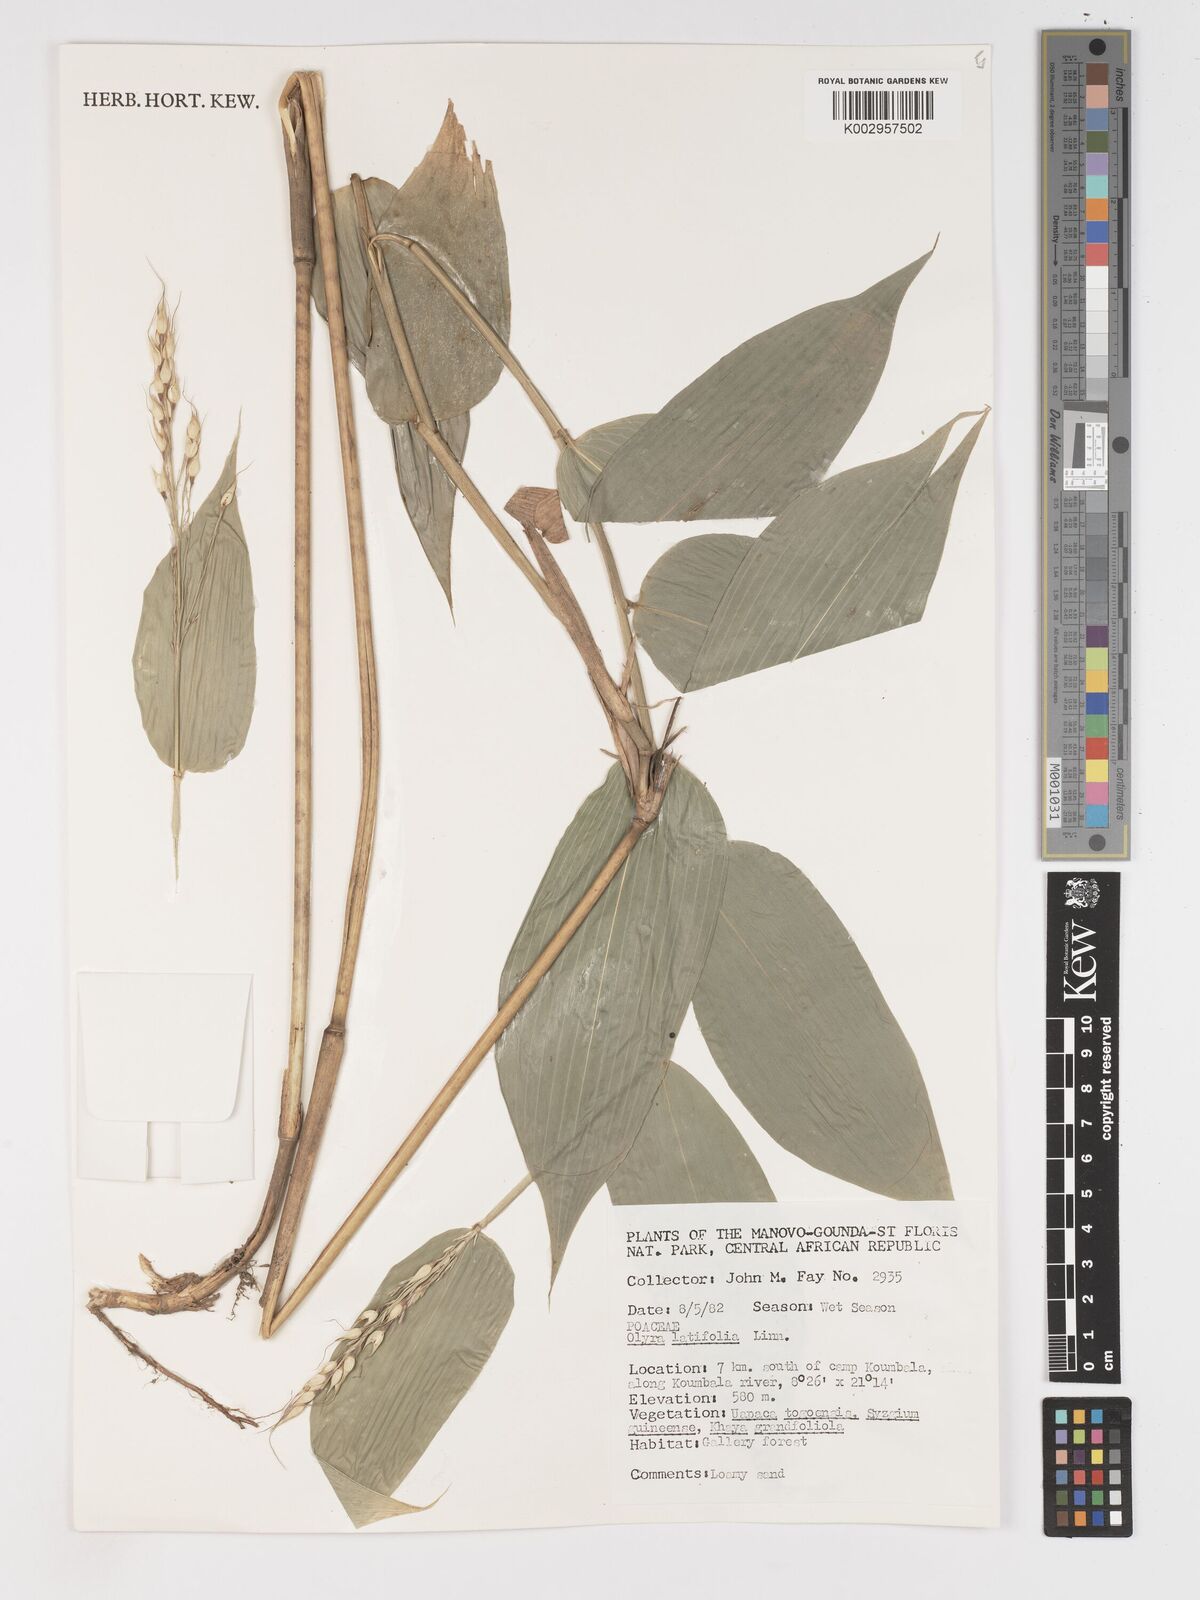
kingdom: Plantae
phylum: Tracheophyta
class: Liliopsida
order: Poales
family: Poaceae
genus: Olyra
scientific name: Olyra latifolia
